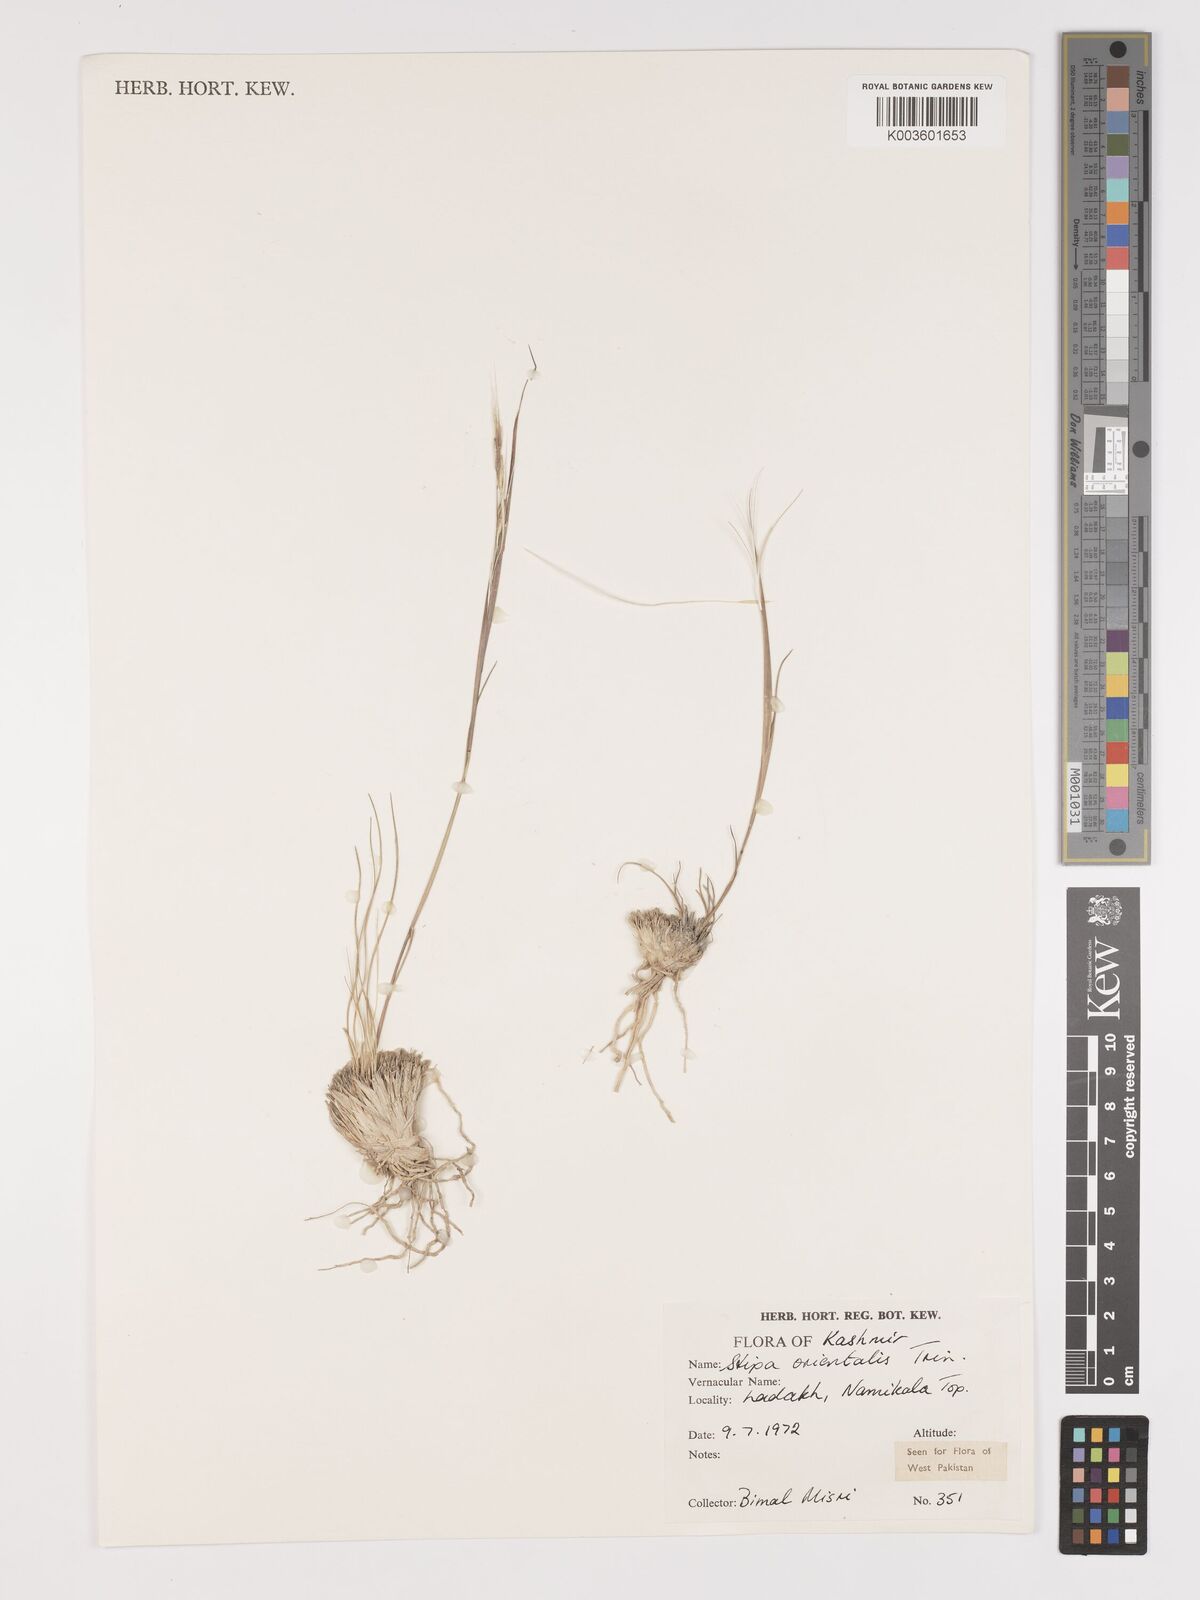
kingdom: Plantae
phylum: Tracheophyta
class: Liliopsida
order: Poales
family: Poaceae
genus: Stipa
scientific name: Stipa orientalis
